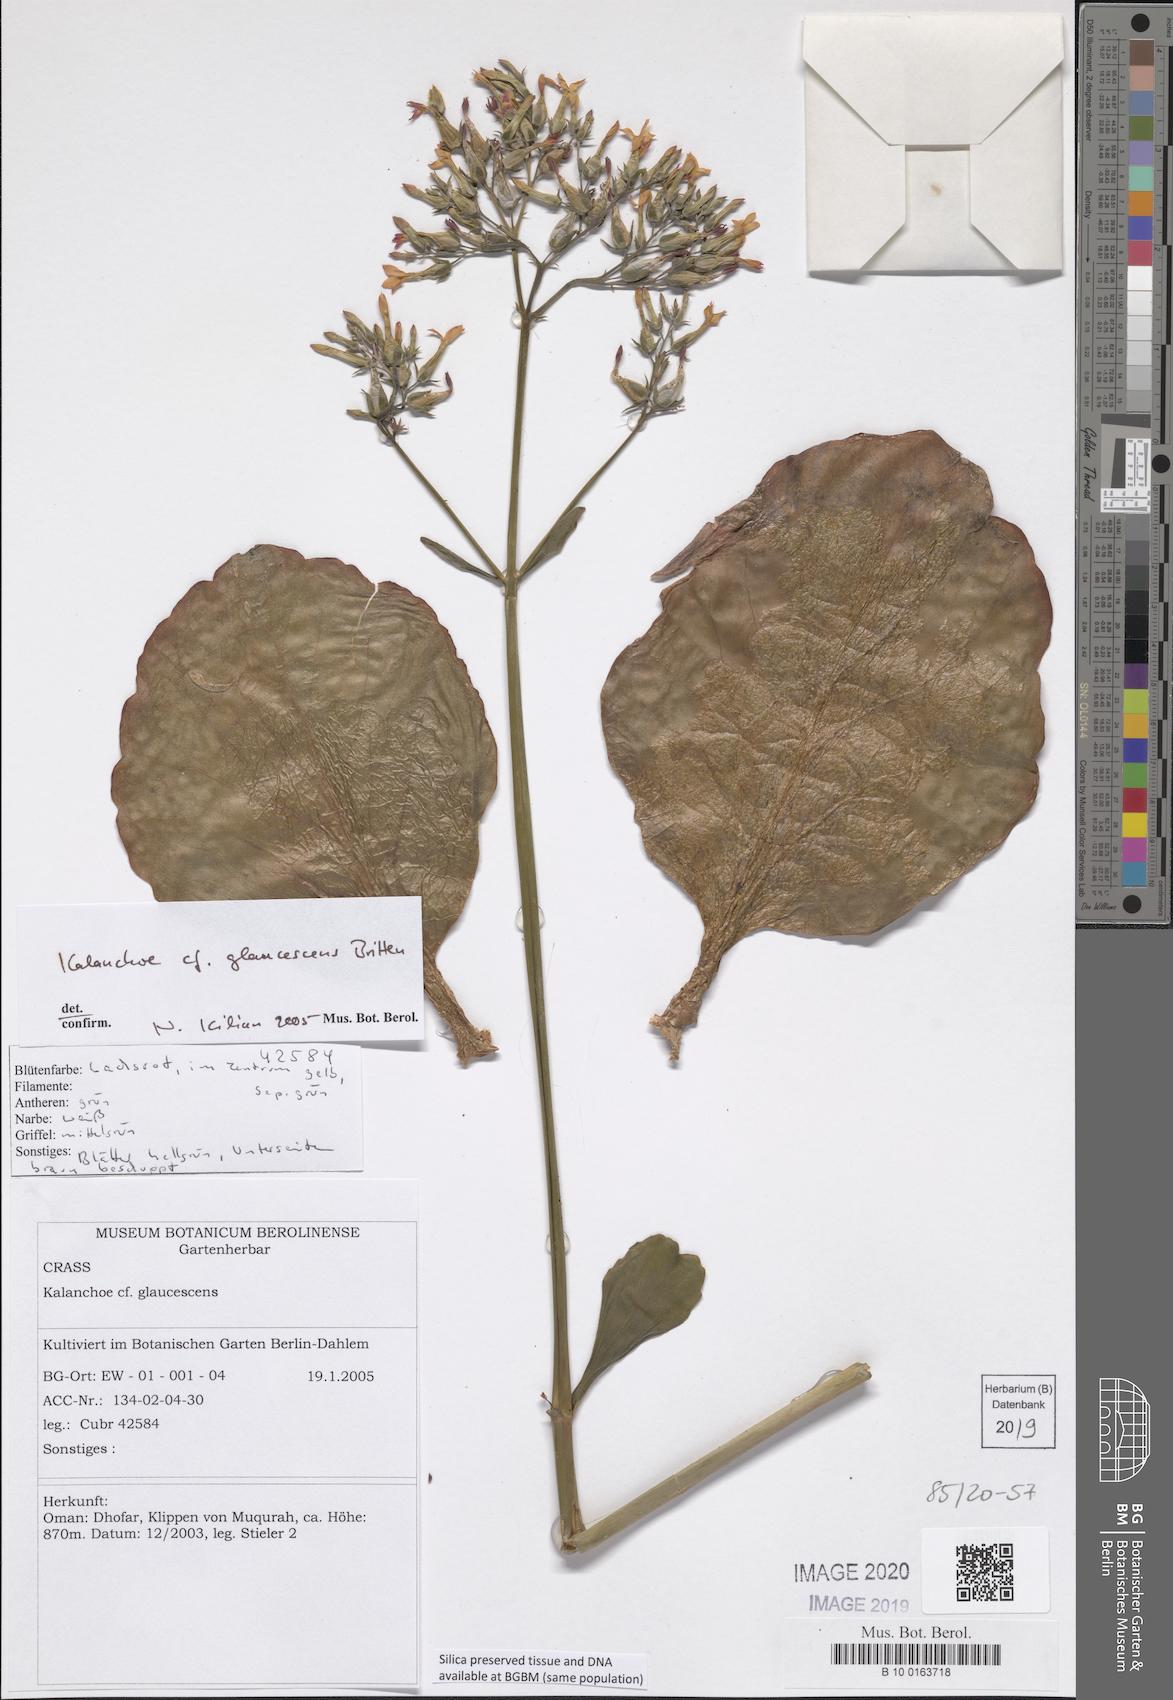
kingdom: Plantae
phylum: Tracheophyta
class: Magnoliopsida
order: Saxifragales
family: Crassulaceae
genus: Kalanchoe
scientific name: Kalanchoe glaucescens
